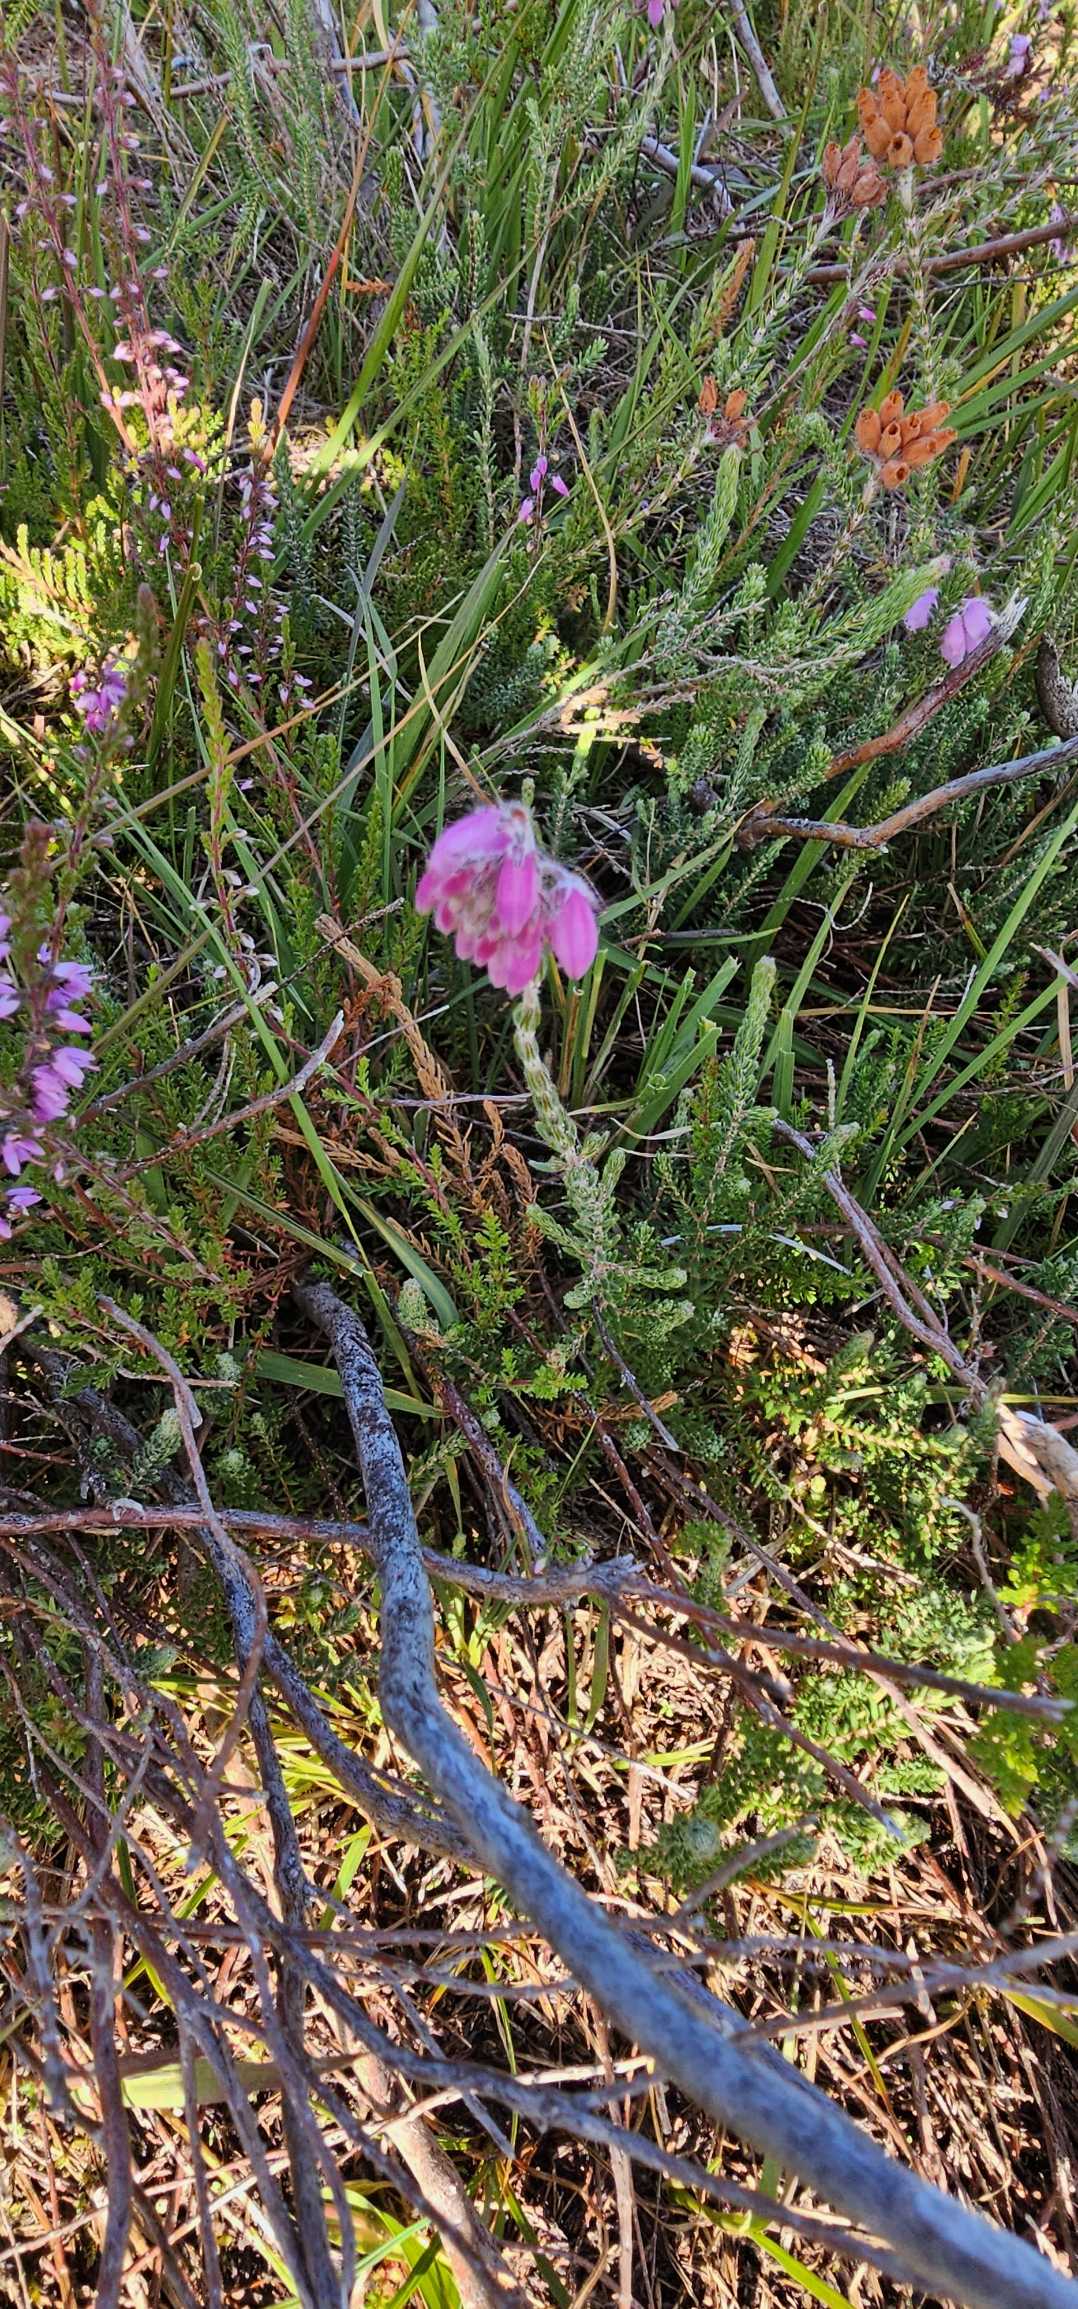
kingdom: Plantae
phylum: Tracheophyta
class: Magnoliopsida
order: Ericales
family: Ericaceae
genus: Erica
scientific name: Erica tetralix
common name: Klokkelyng
